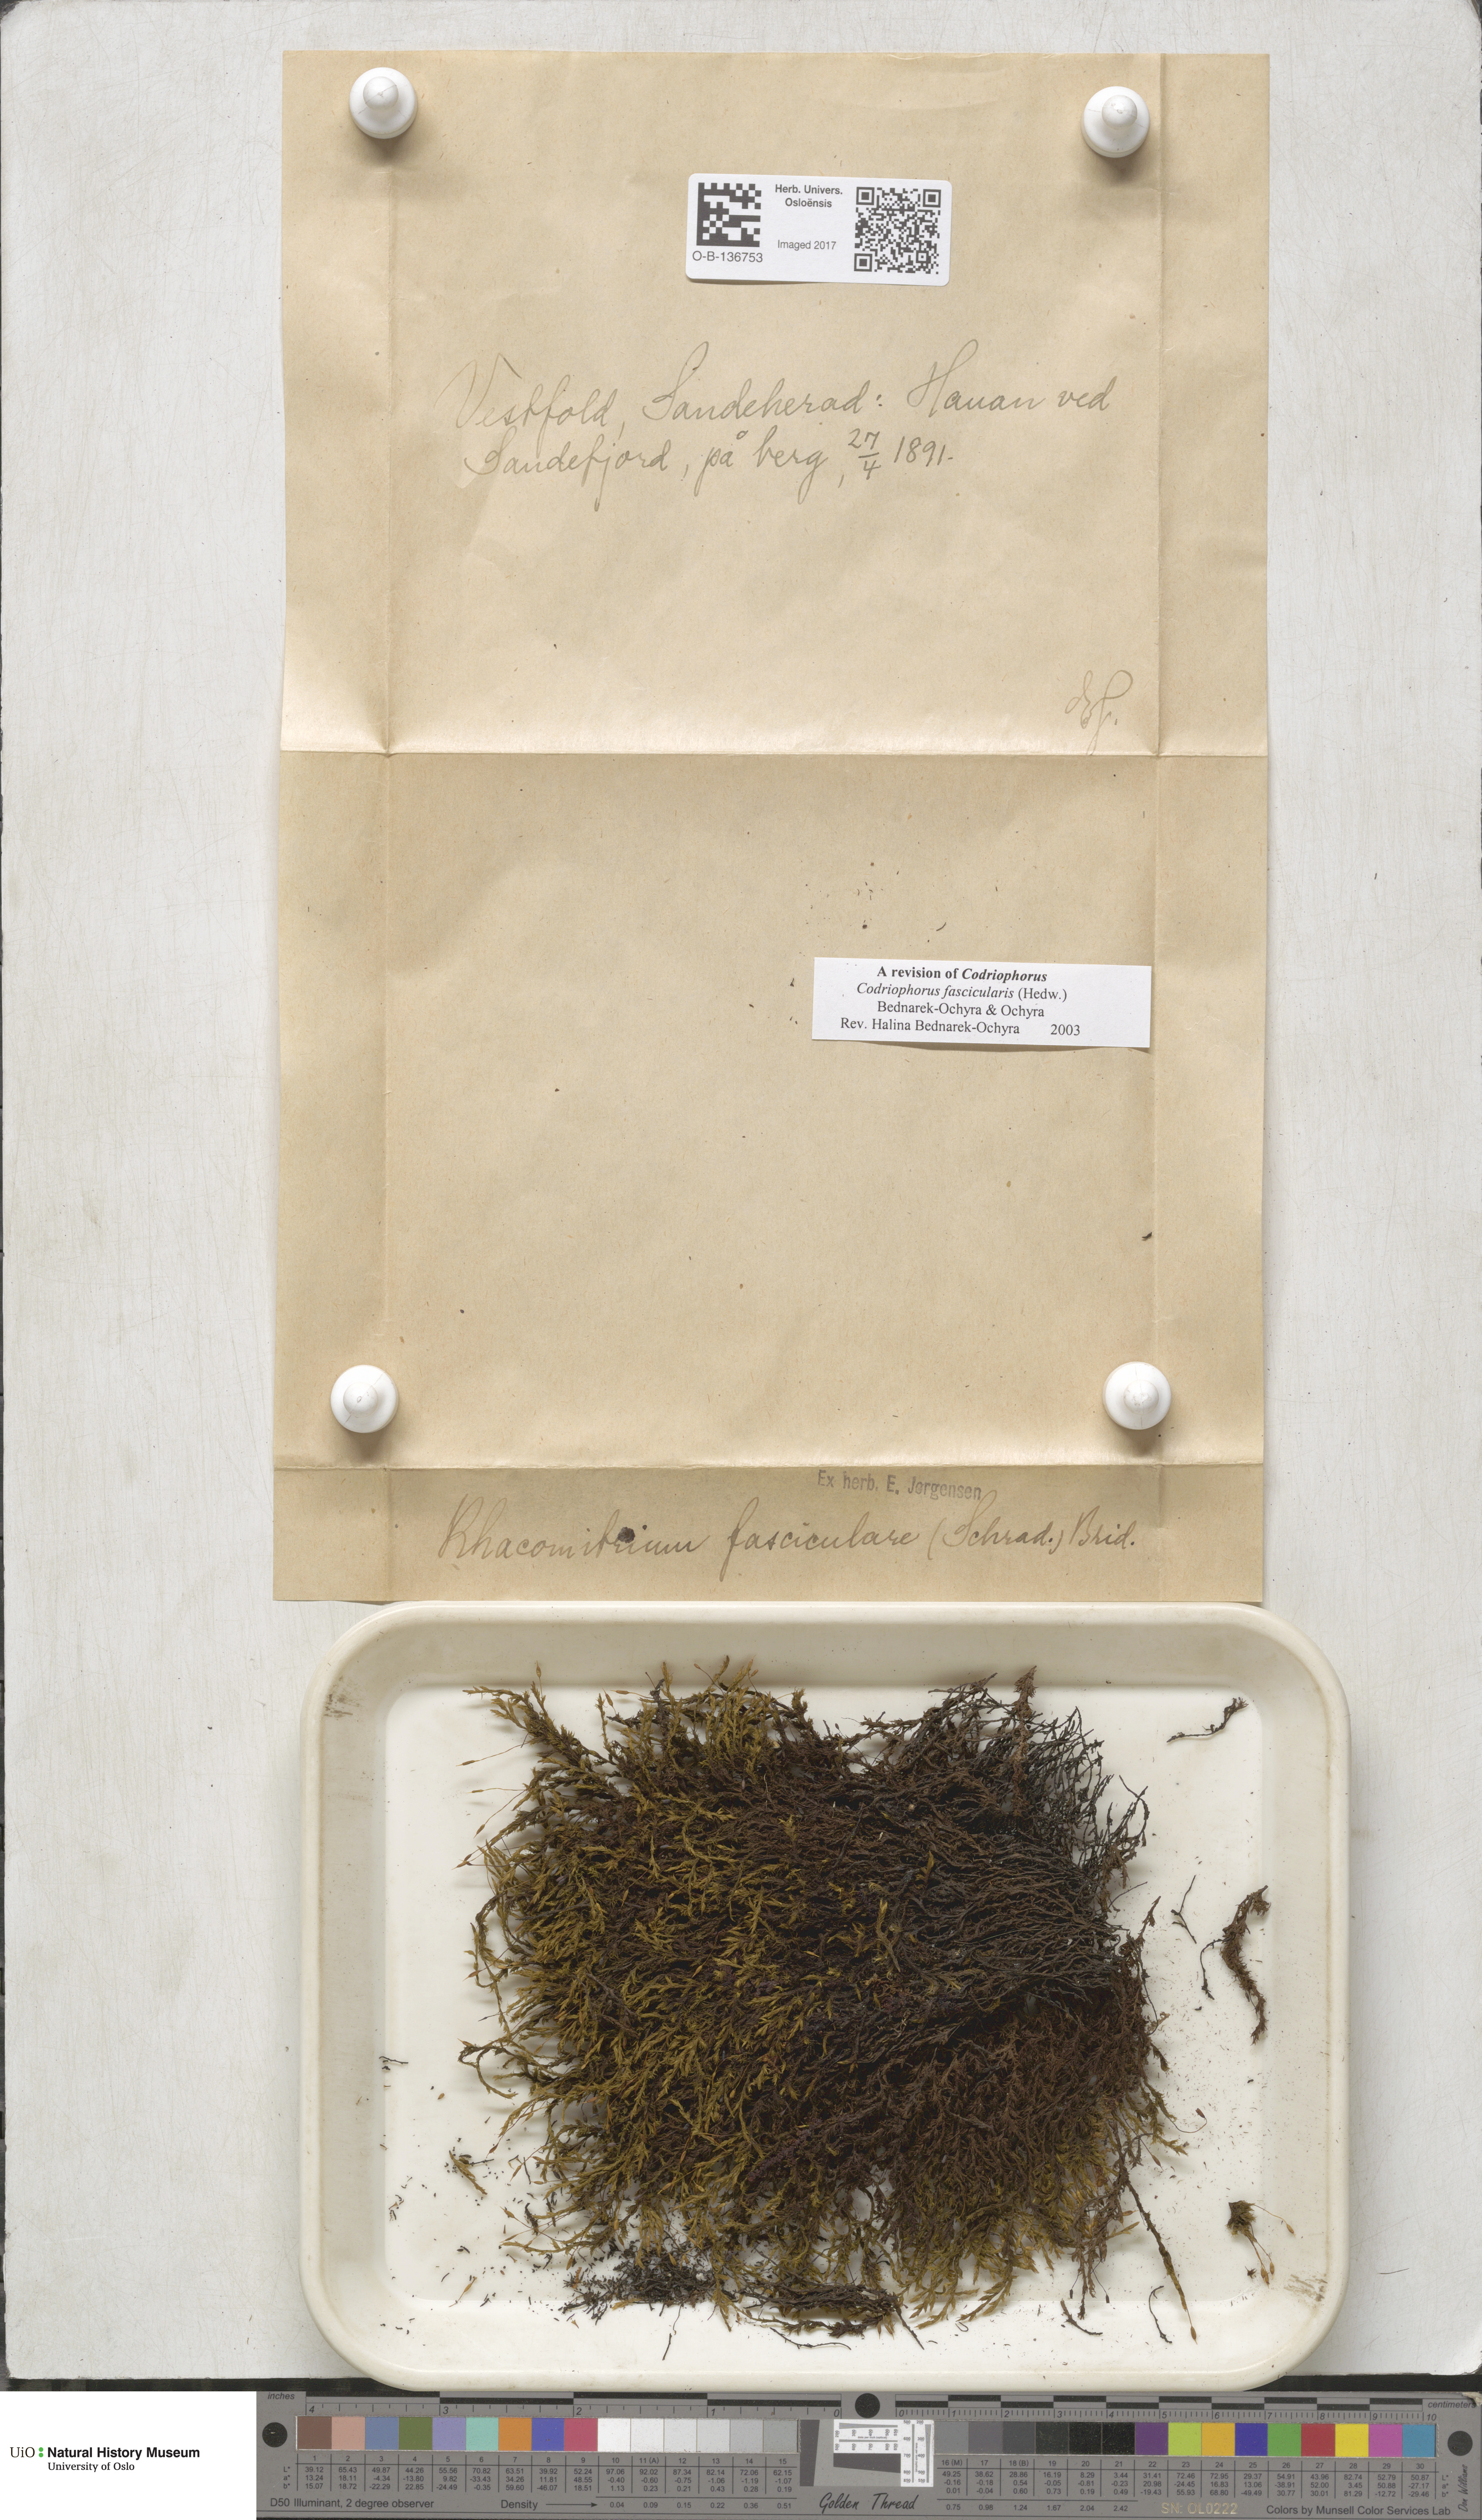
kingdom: Plantae
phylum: Bryophyta
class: Bryopsida
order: Grimmiales
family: Grimmiaceae
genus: Dilutineuron
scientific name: Dilutineuron fasciculare
